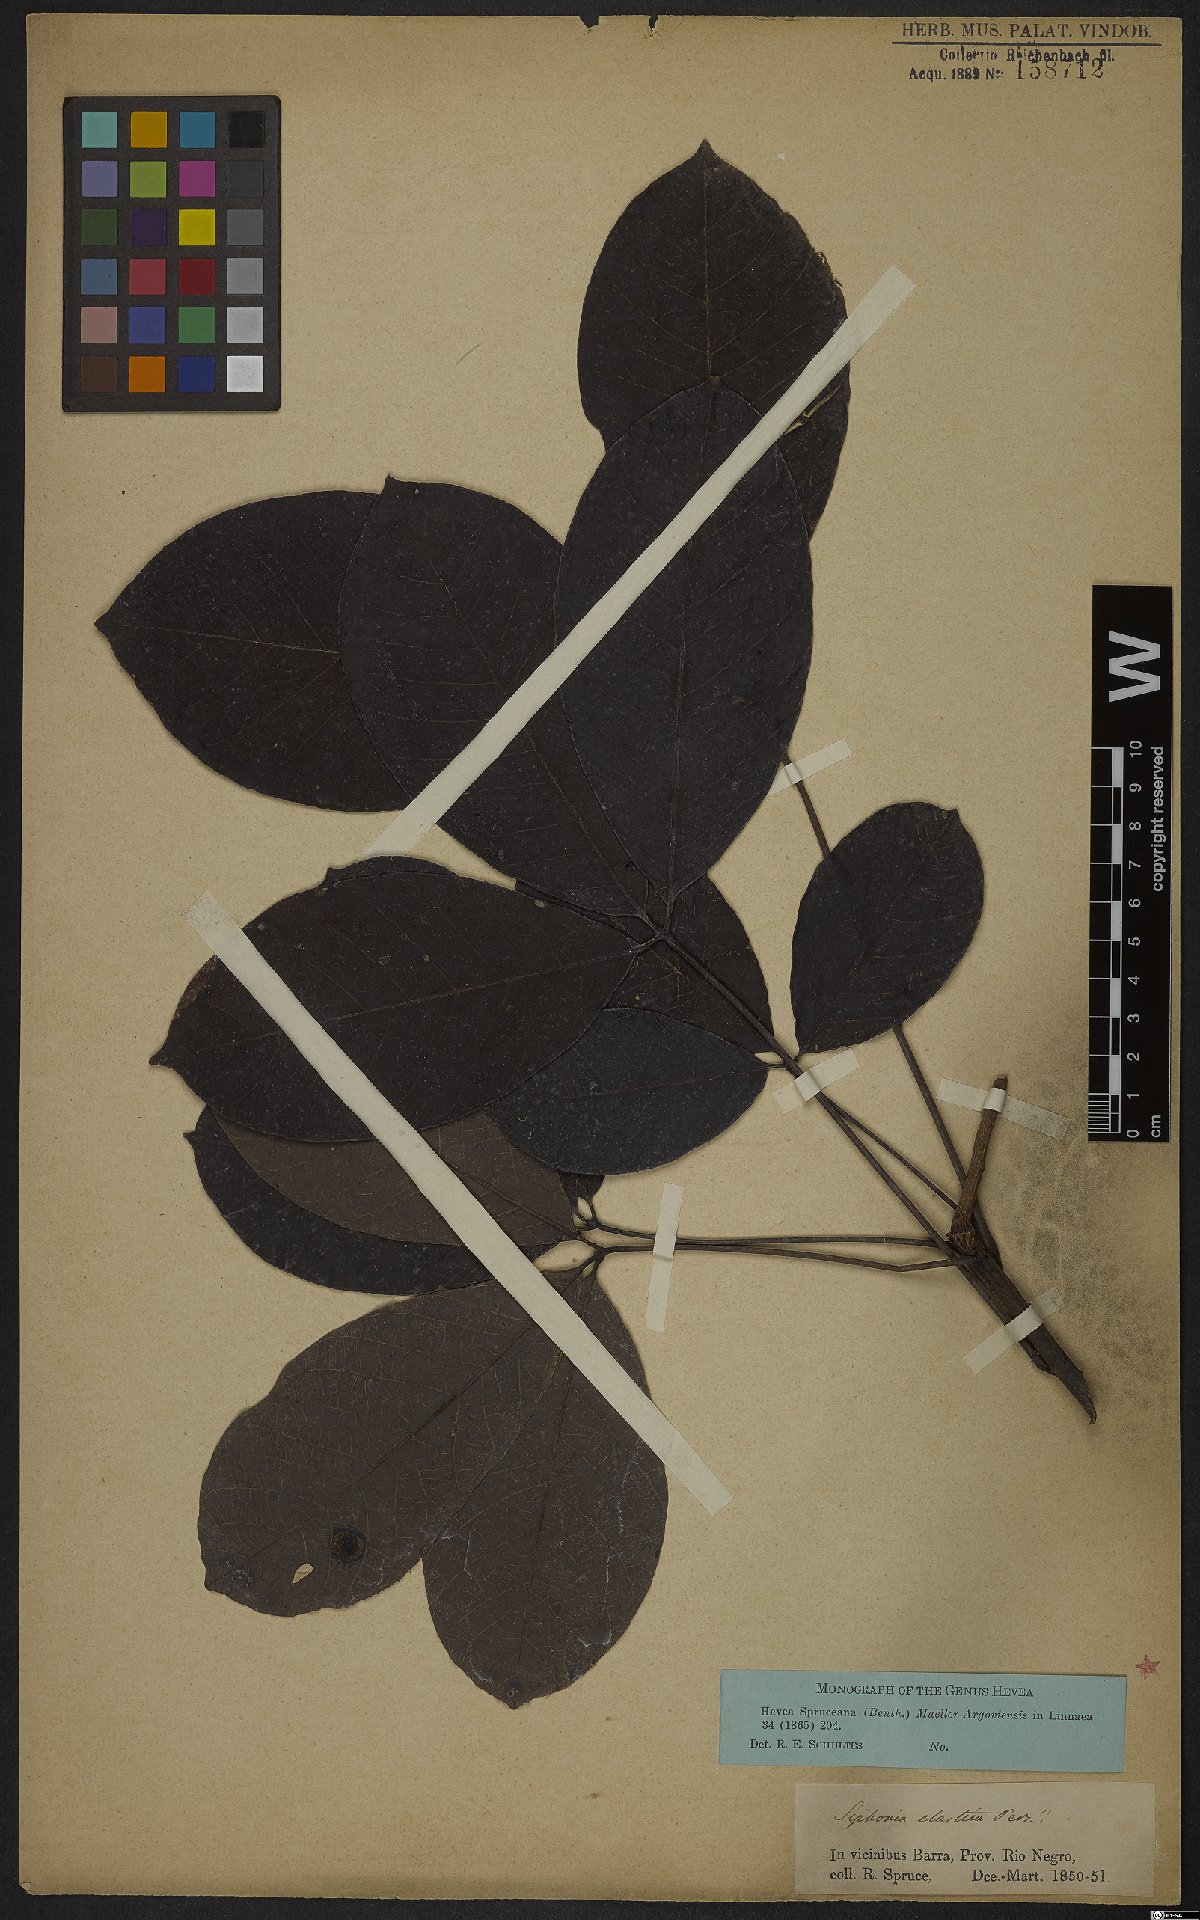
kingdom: Plantae
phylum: Tracheophyta
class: Magnoliopsida
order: Malpighiales
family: Euphorbiaceae
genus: Hevea
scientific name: Hevea spruceana
